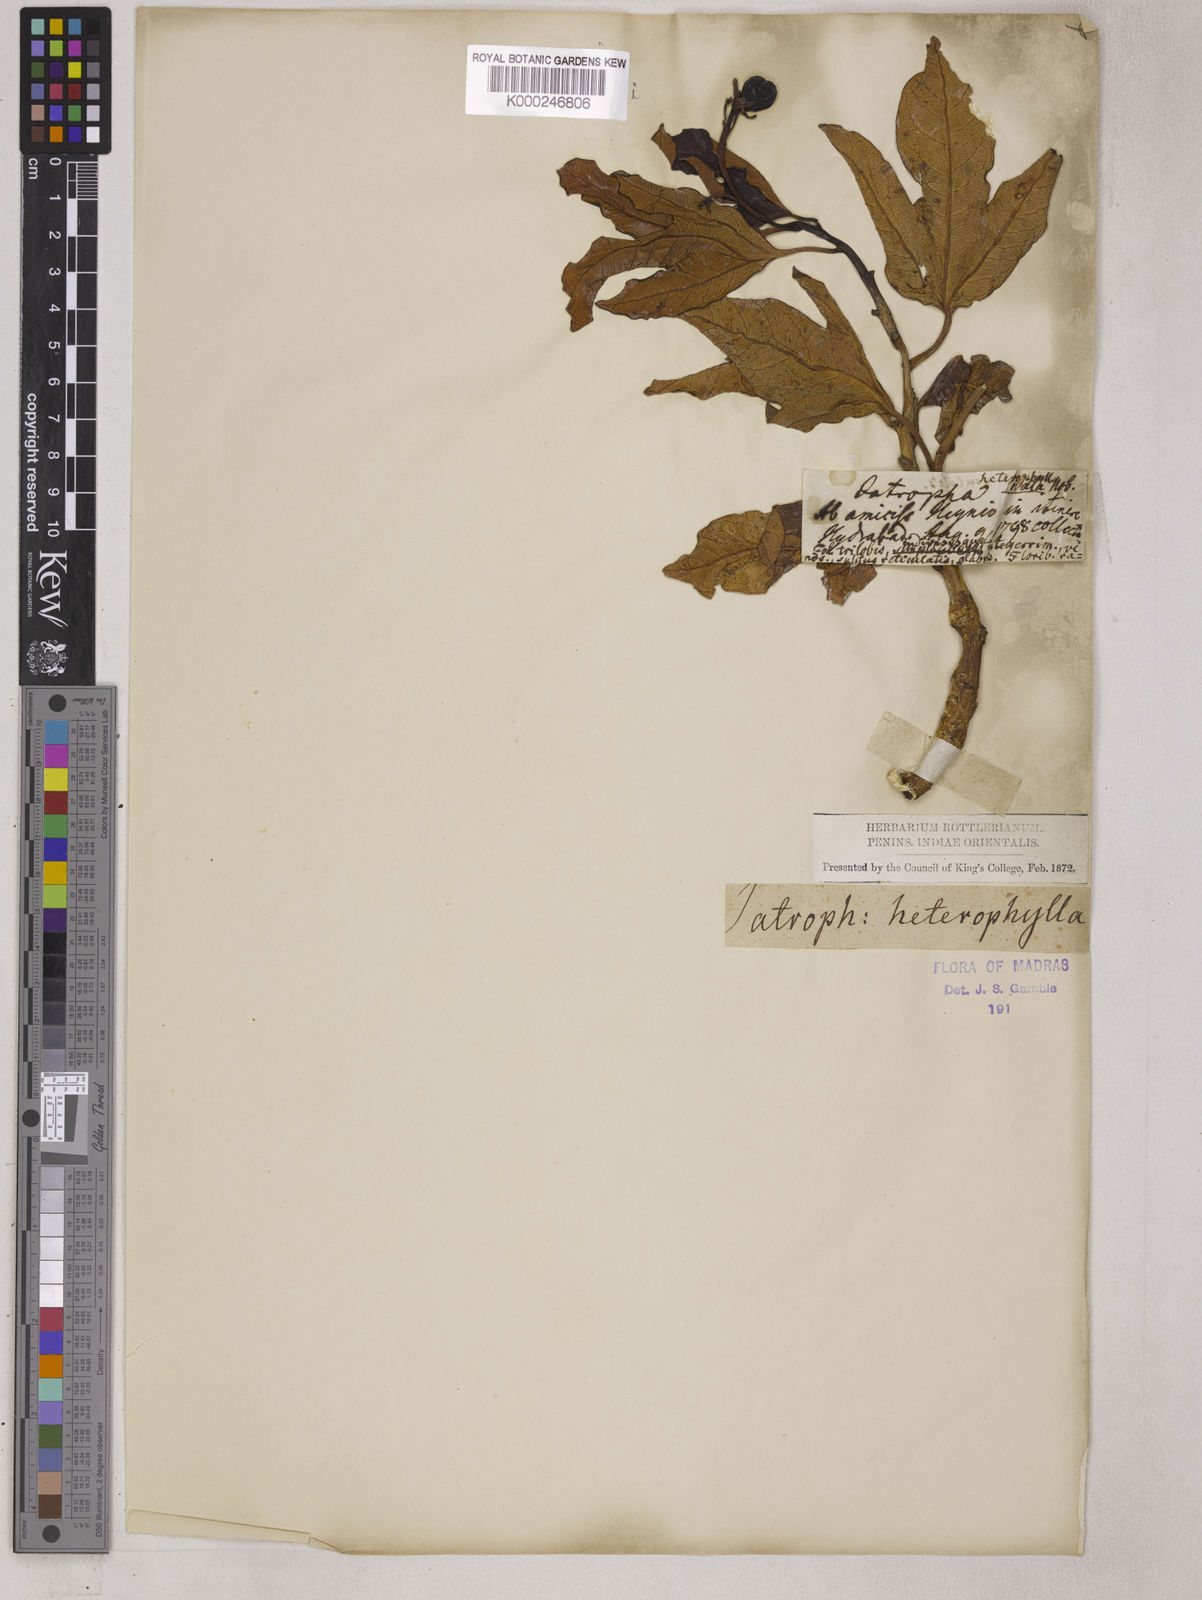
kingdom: Plantae
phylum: Tracheophyta
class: Magnoliopsida
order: Malpighiales
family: Euphorbiaceae
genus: Jatropha
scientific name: Jatropha heynei
